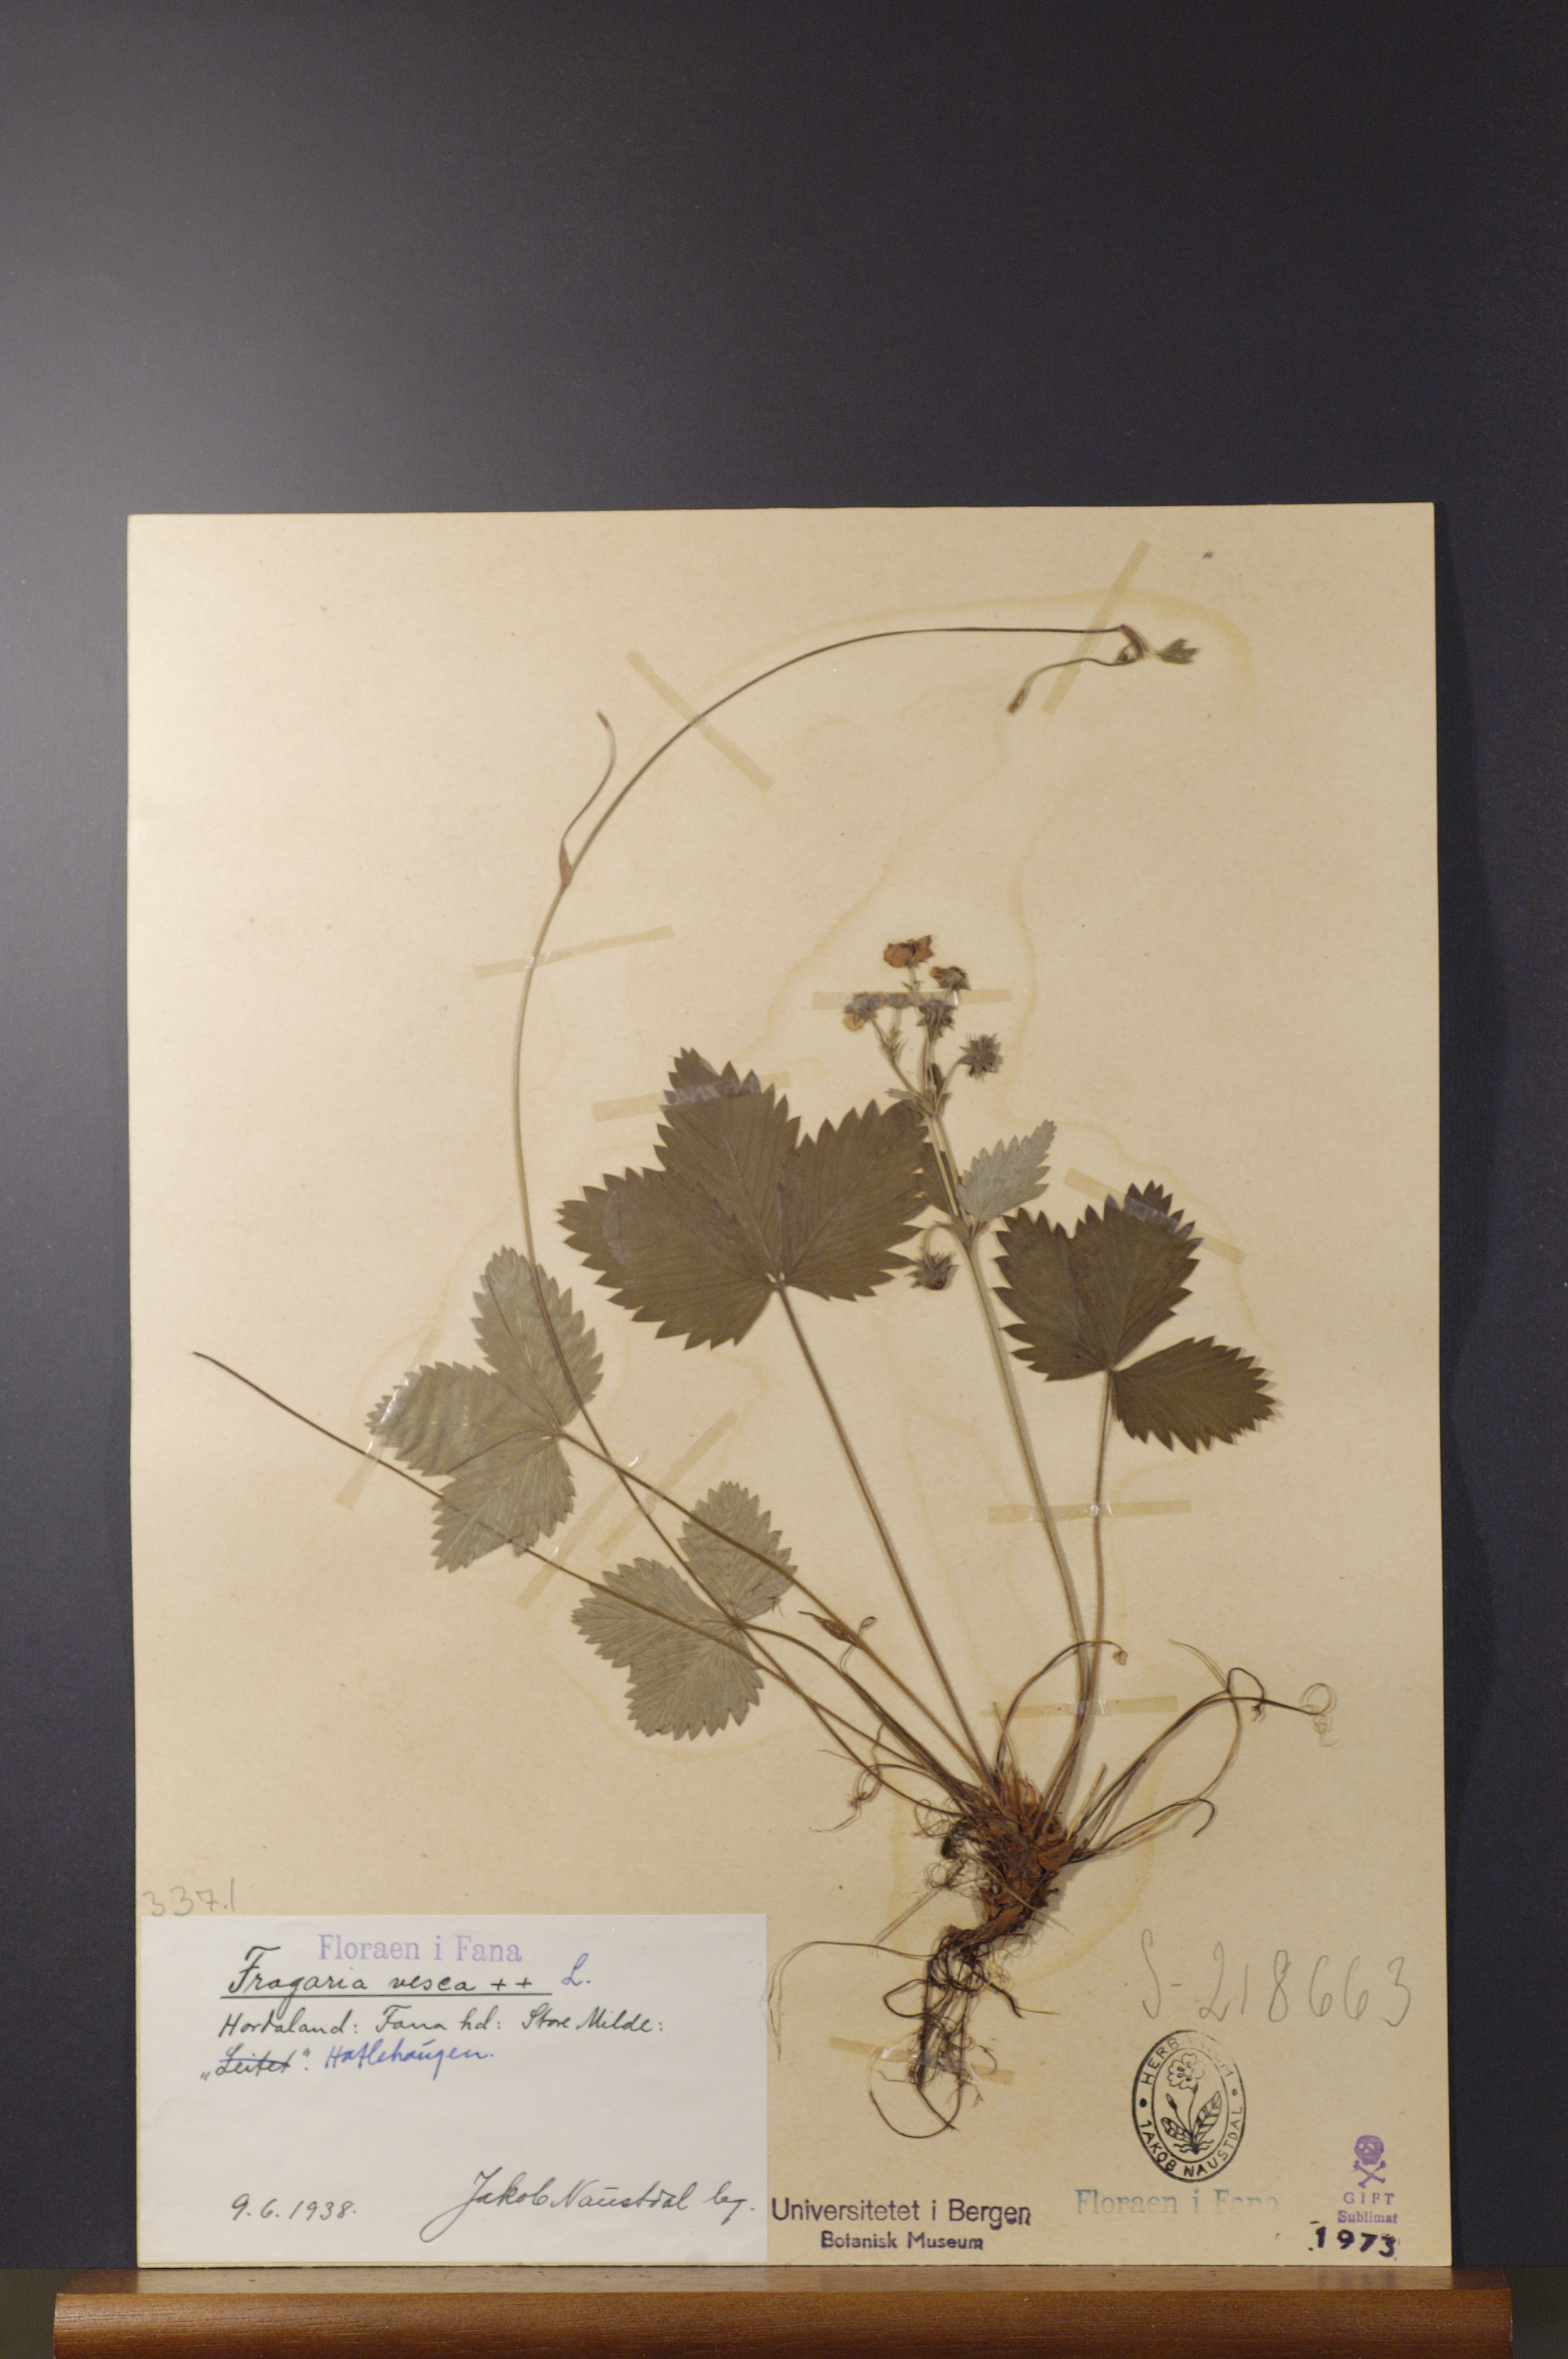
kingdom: Plantae
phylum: Tracheophyta
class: Magnoliopsida
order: Rosales
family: Rosaceae
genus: Fragaria
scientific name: Fragaria vesca
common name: Wild strawberry
